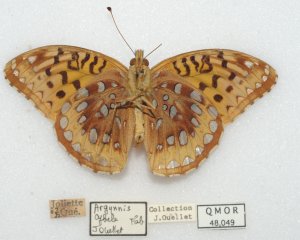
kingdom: Animalia
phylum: Arthropoda
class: Insecta
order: Lepidoptera
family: Nymphalidae
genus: Speyeria
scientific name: Speyeria cybele
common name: Great Spangled Fritillary
